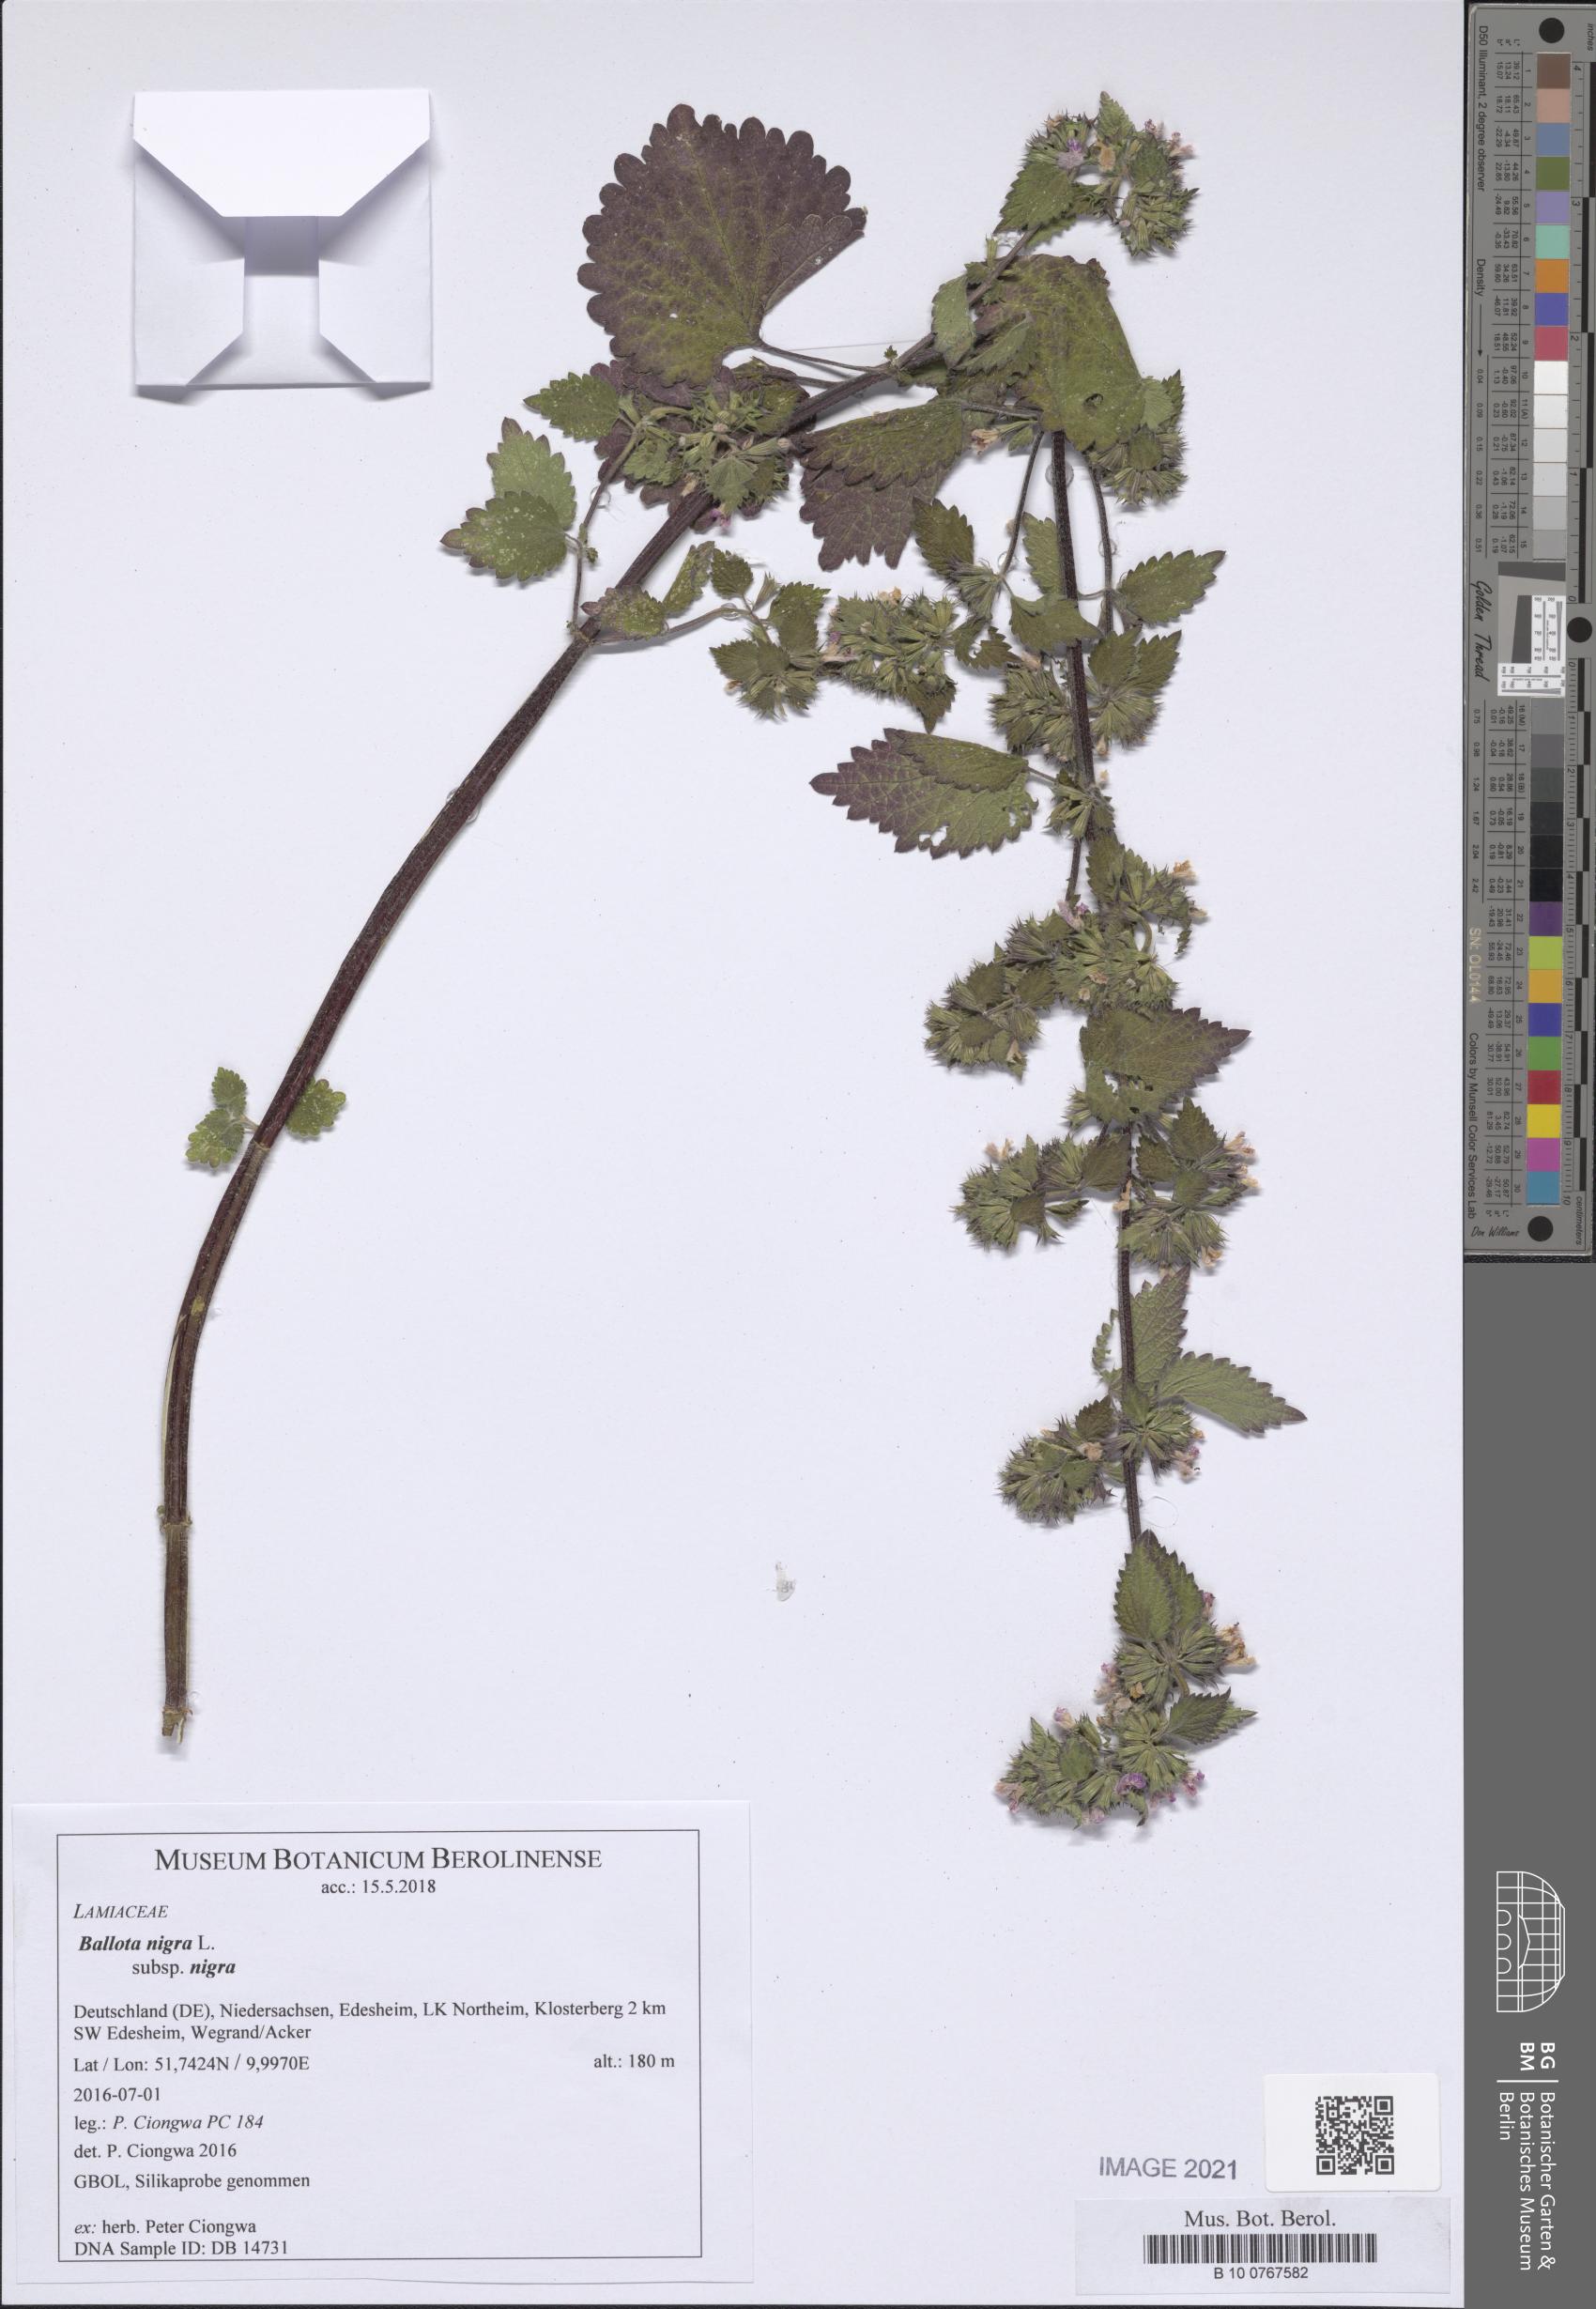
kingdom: Plantae
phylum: Tracheophyta
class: Magnoliopsida
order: Lamiales
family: Lamiaceae
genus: Ballota
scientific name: Ballota nigra
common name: Black horehound
